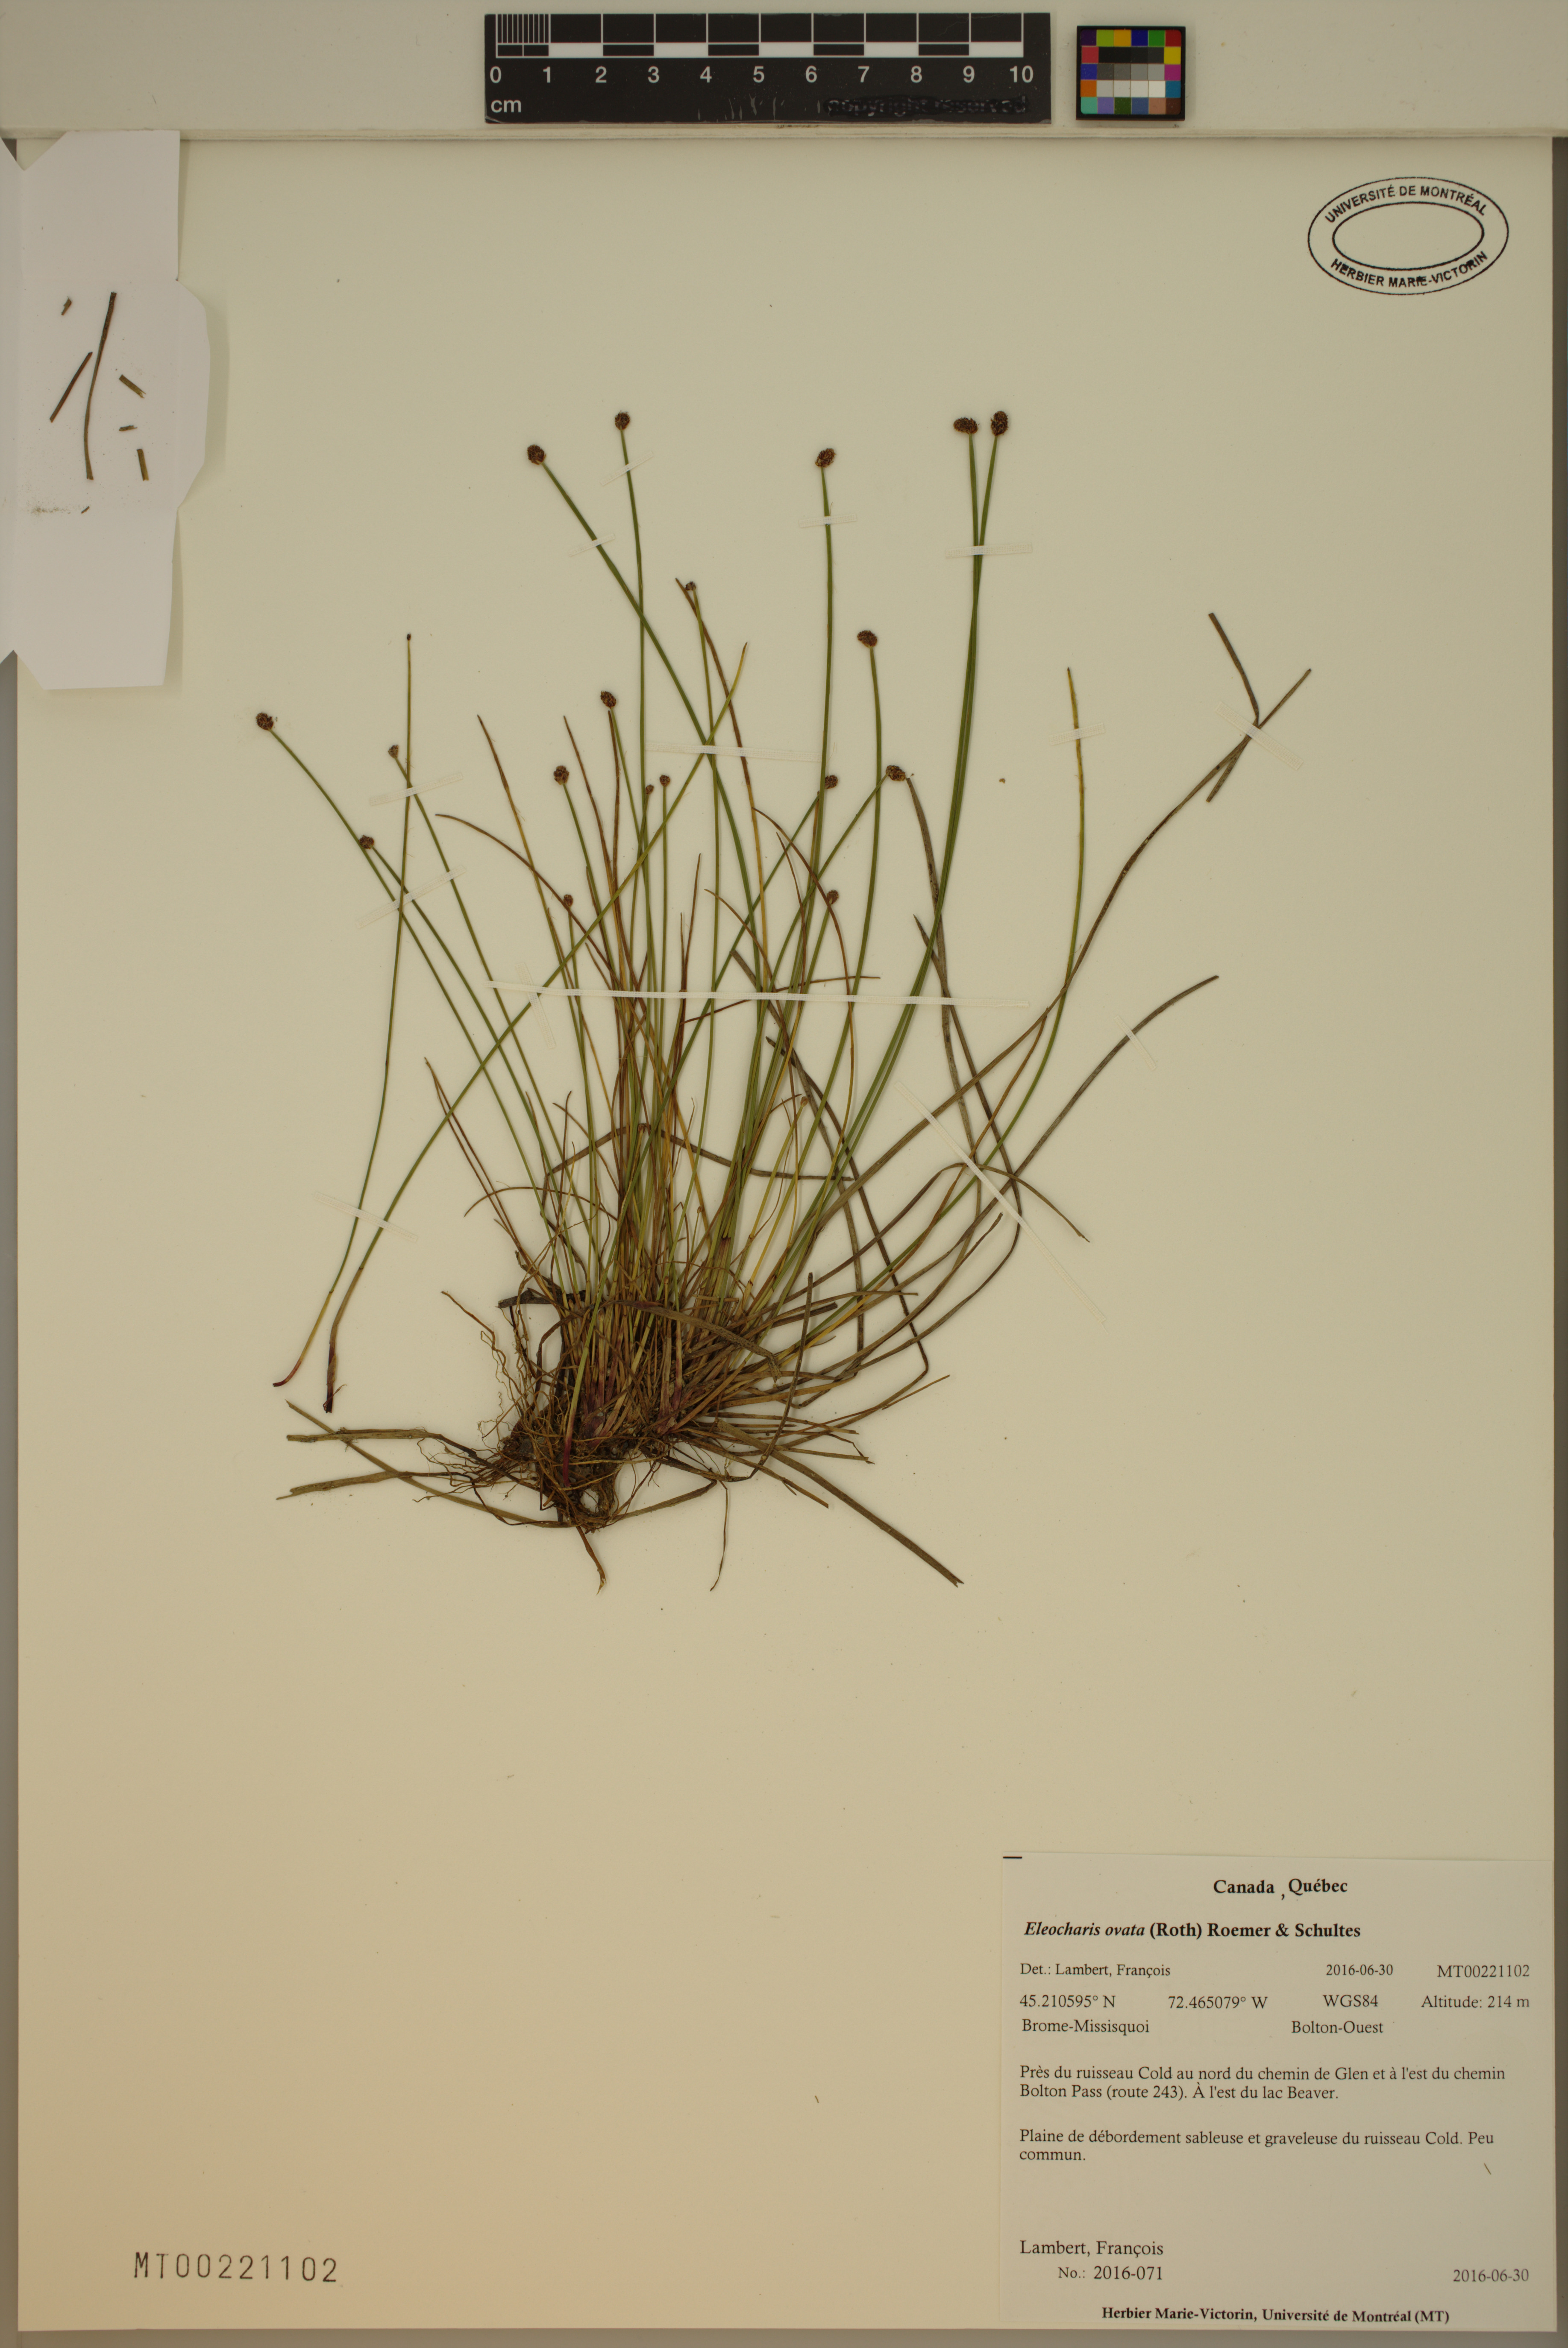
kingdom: Plantae
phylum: Tracheophyta
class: Liliopsida
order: Poales
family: Cyperaceae
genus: Eleocharis
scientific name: Eleocharis ovata
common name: Oval spike-rush
